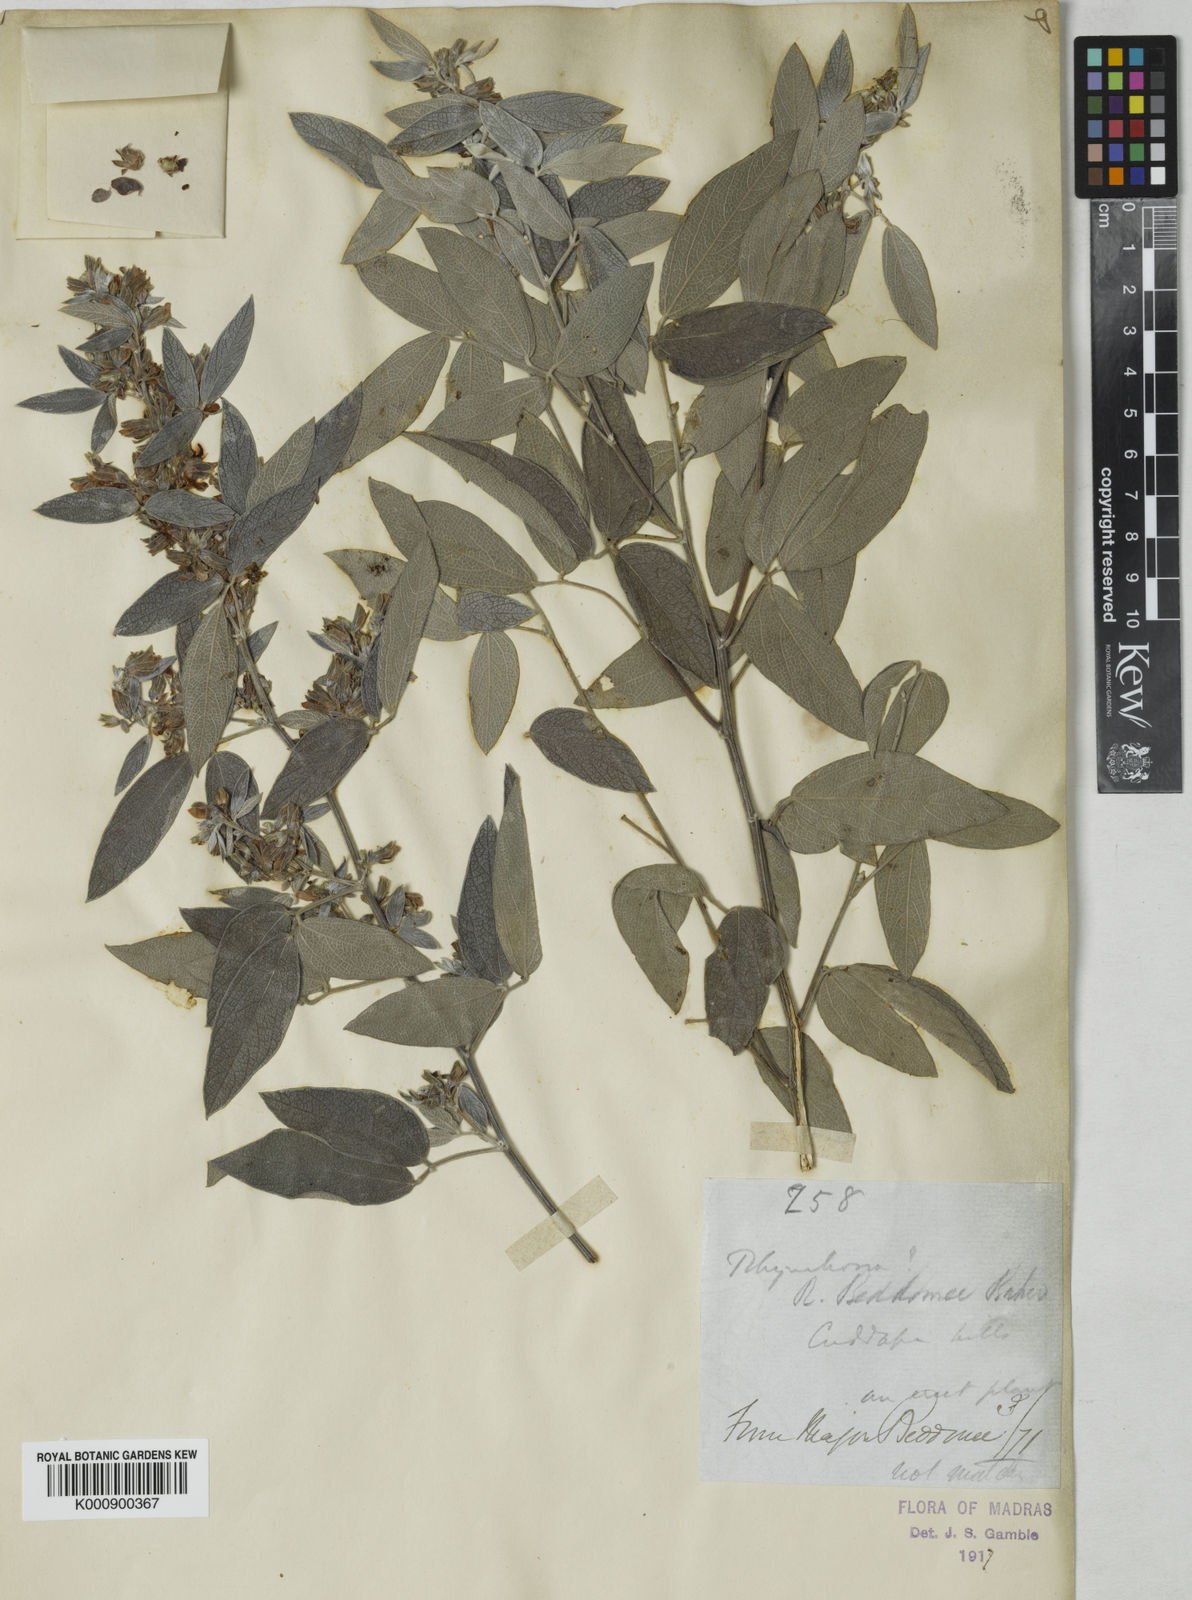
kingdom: Plantae
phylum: Tracheophyta
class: Magnoliopsida
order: Fabales
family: Fabaceae
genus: Rhynchosia
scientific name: Rhynchosia beddomei
